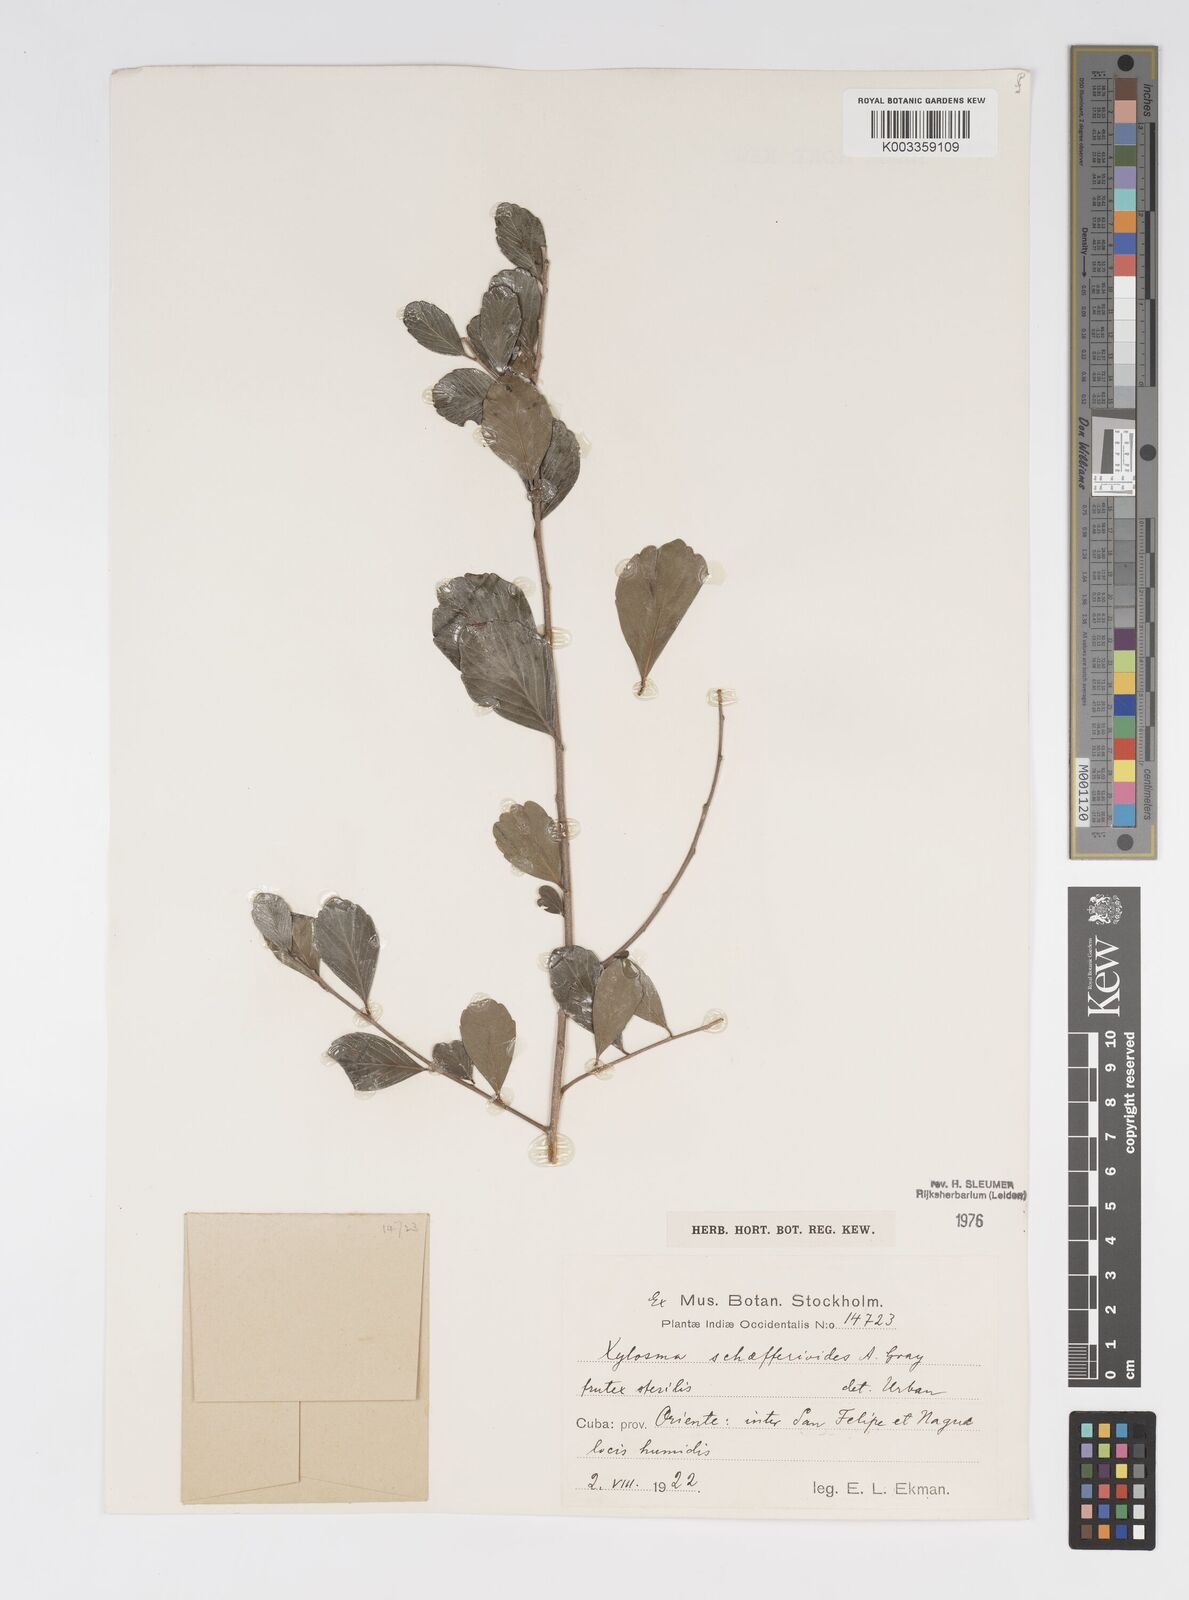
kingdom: Plantae
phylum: Tracheophyta
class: Magnoliopsida
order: Malpighiales
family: Salicaceae
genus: Xylosma
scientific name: Xylosma schaefferioides
